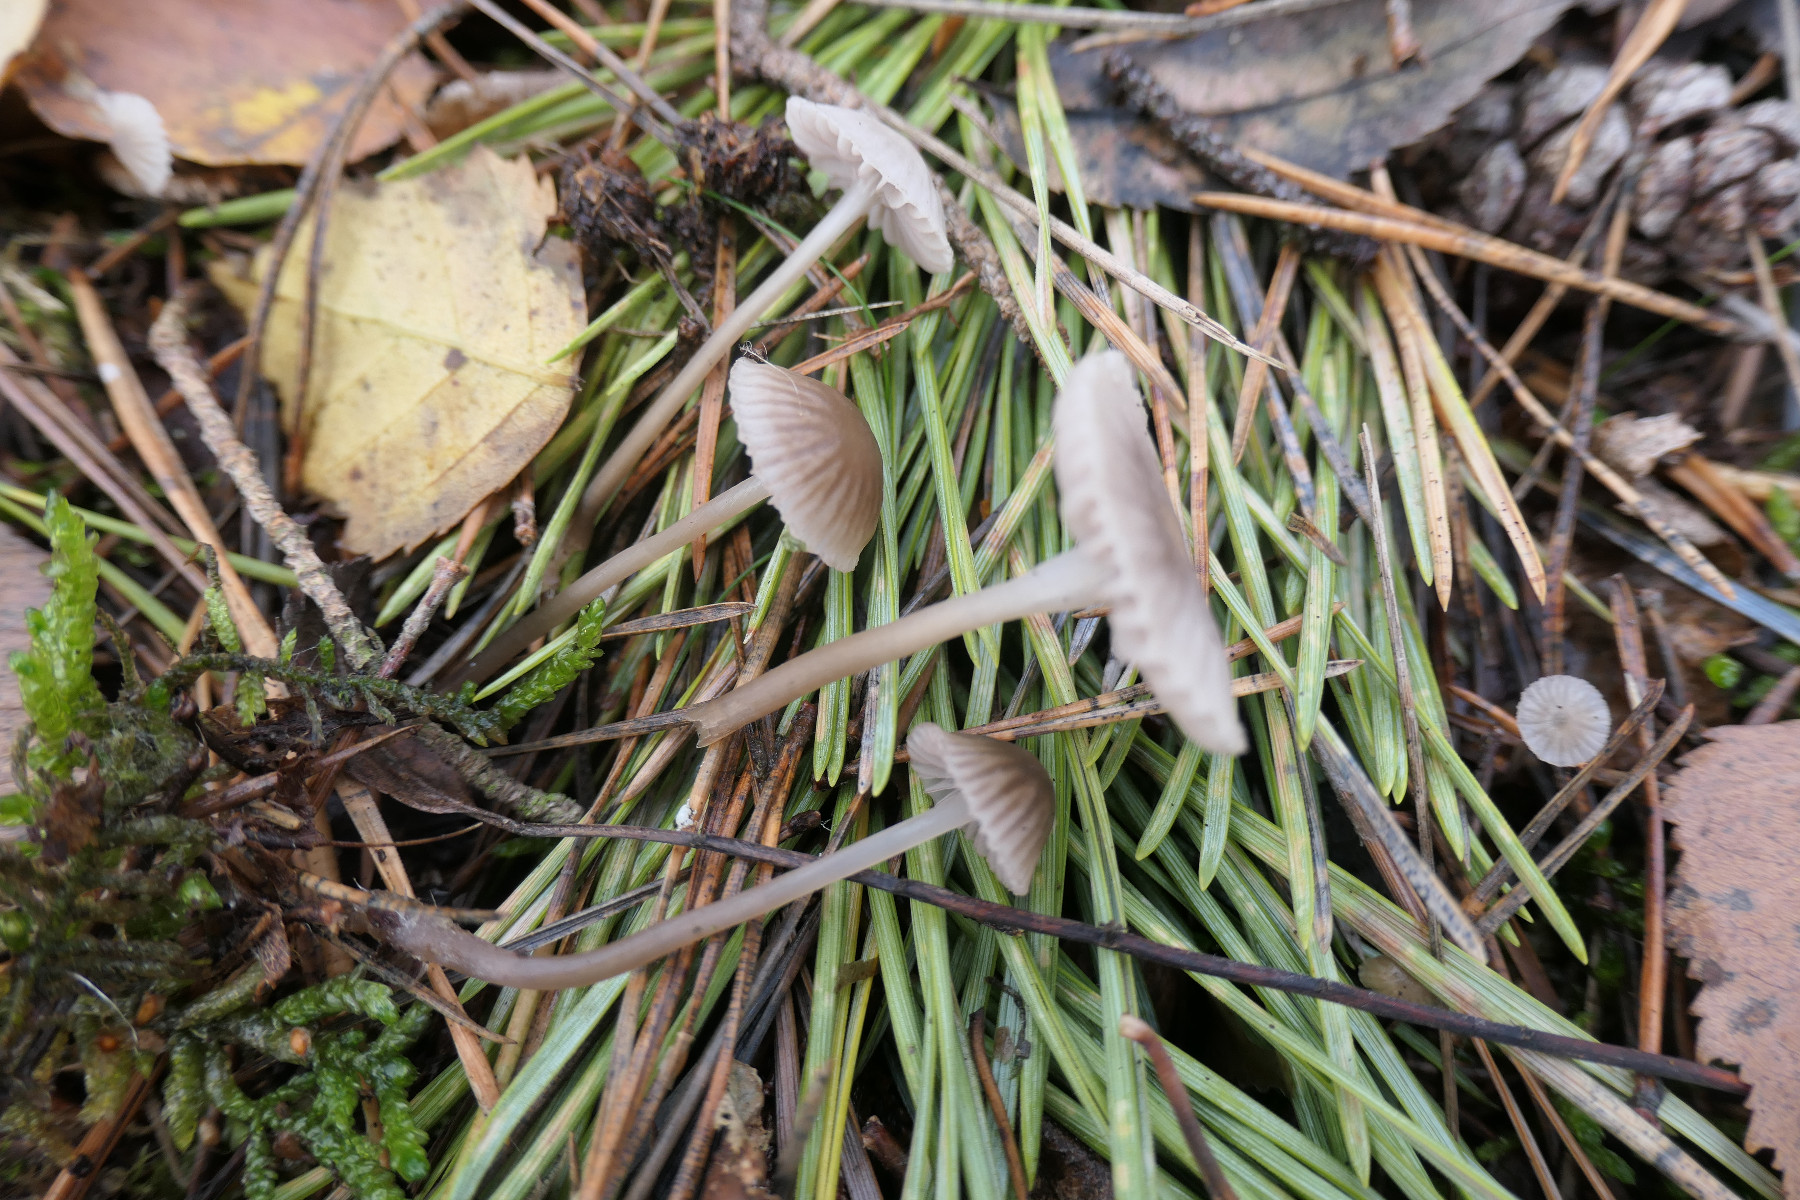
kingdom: Fungi
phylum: Basidiomycota
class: Agaricomycetes
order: Agaricales
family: Mycenaceae
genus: Mycena
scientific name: Mycena capillaripes
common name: nåle-huesvamp
